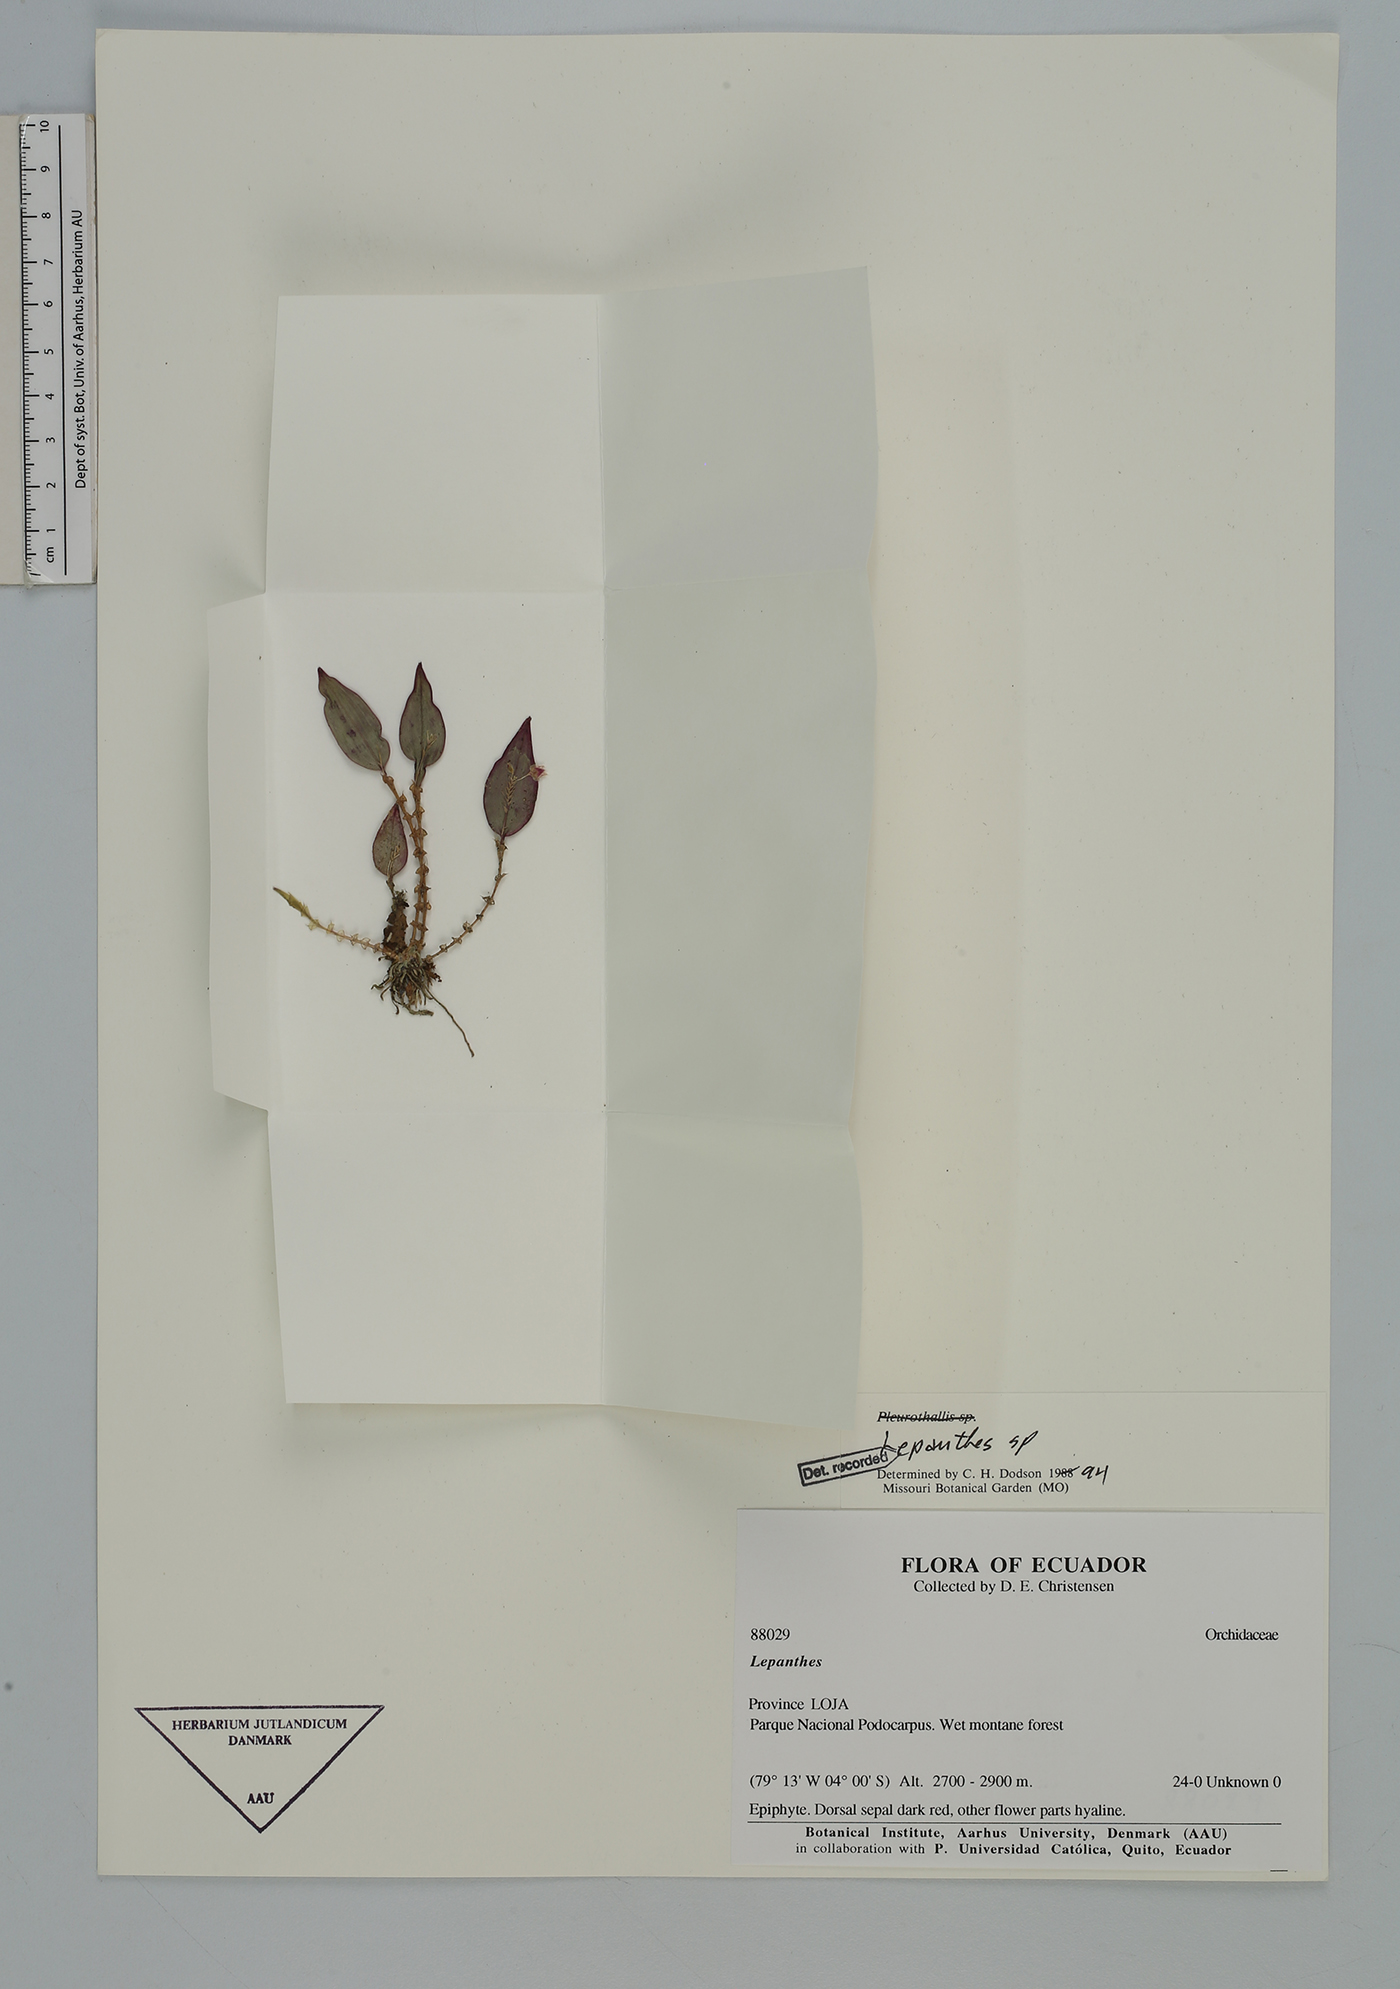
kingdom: Plantae
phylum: Tracheophyta
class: Liliopsida
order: Asparagales
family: Orchidaceae
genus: Lepanthes
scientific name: Lepanthes
